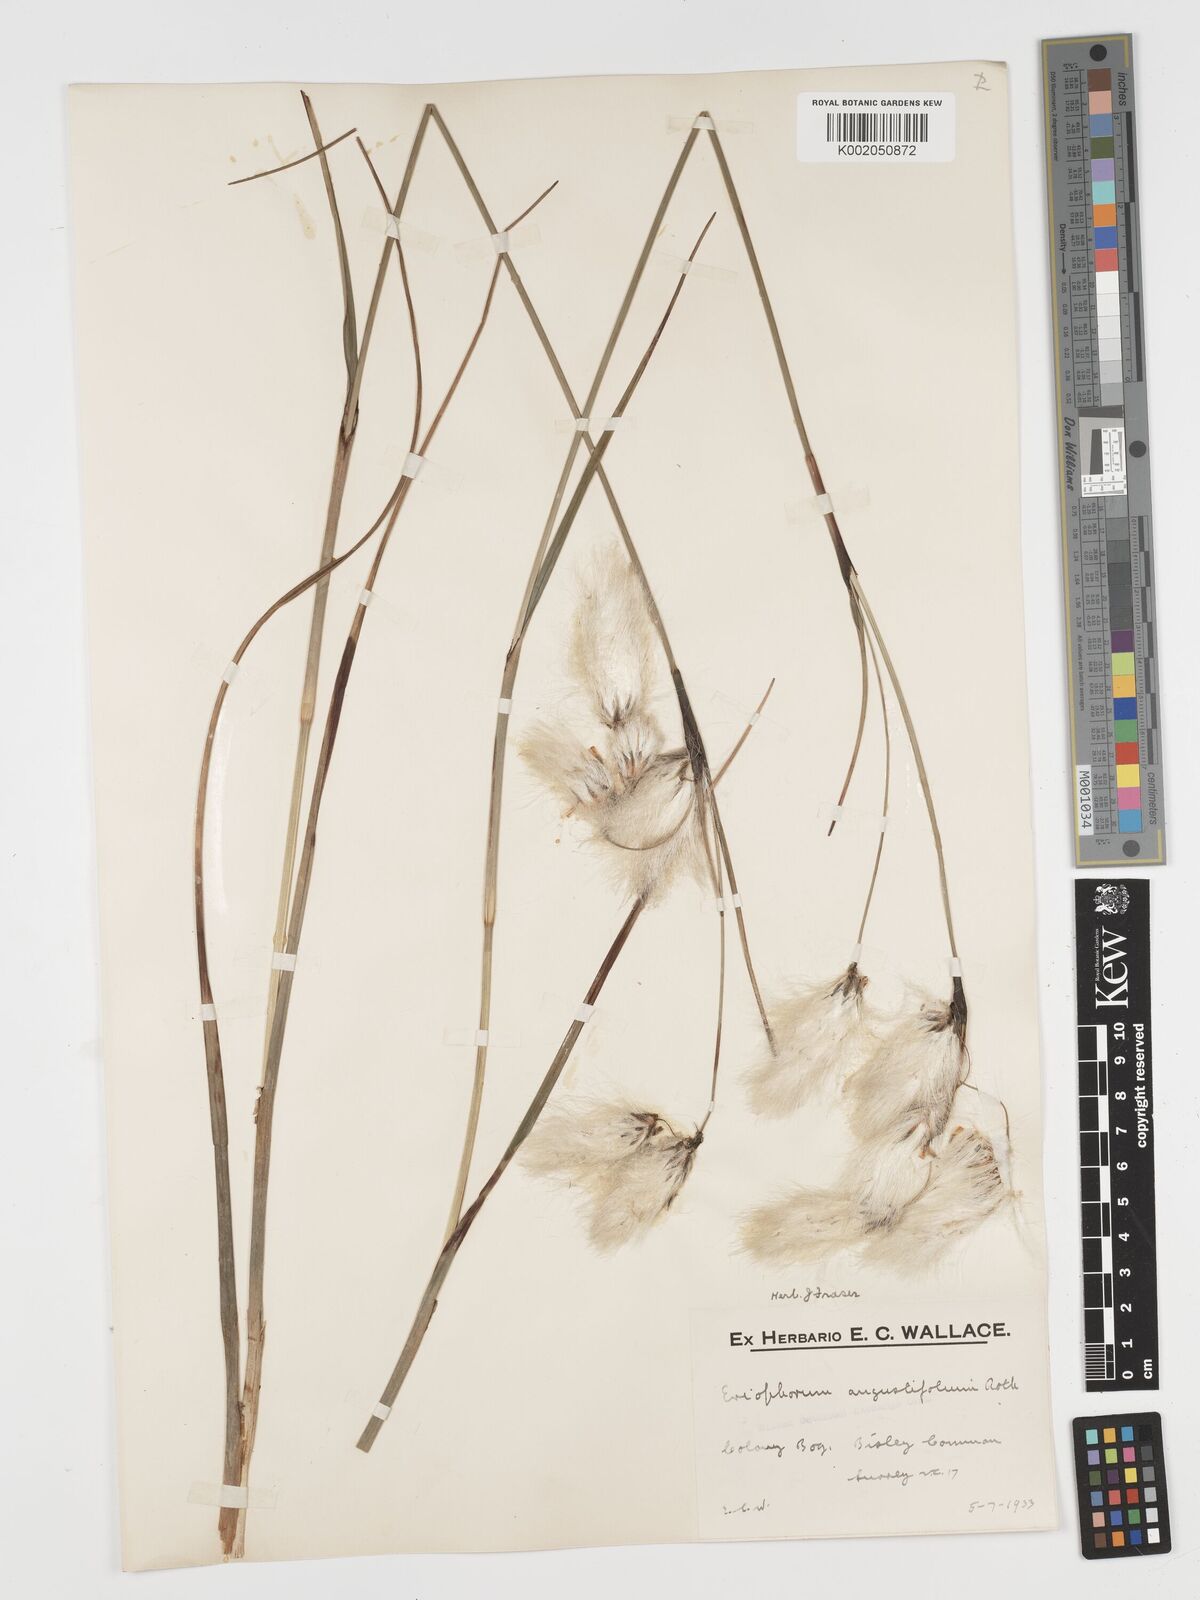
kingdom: Plantae
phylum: Tracheophyta
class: Liliopsida
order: Poales
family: Cyperaceae
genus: Eriophorum
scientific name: Eriophorum angustifolium
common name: Common cottongrass
